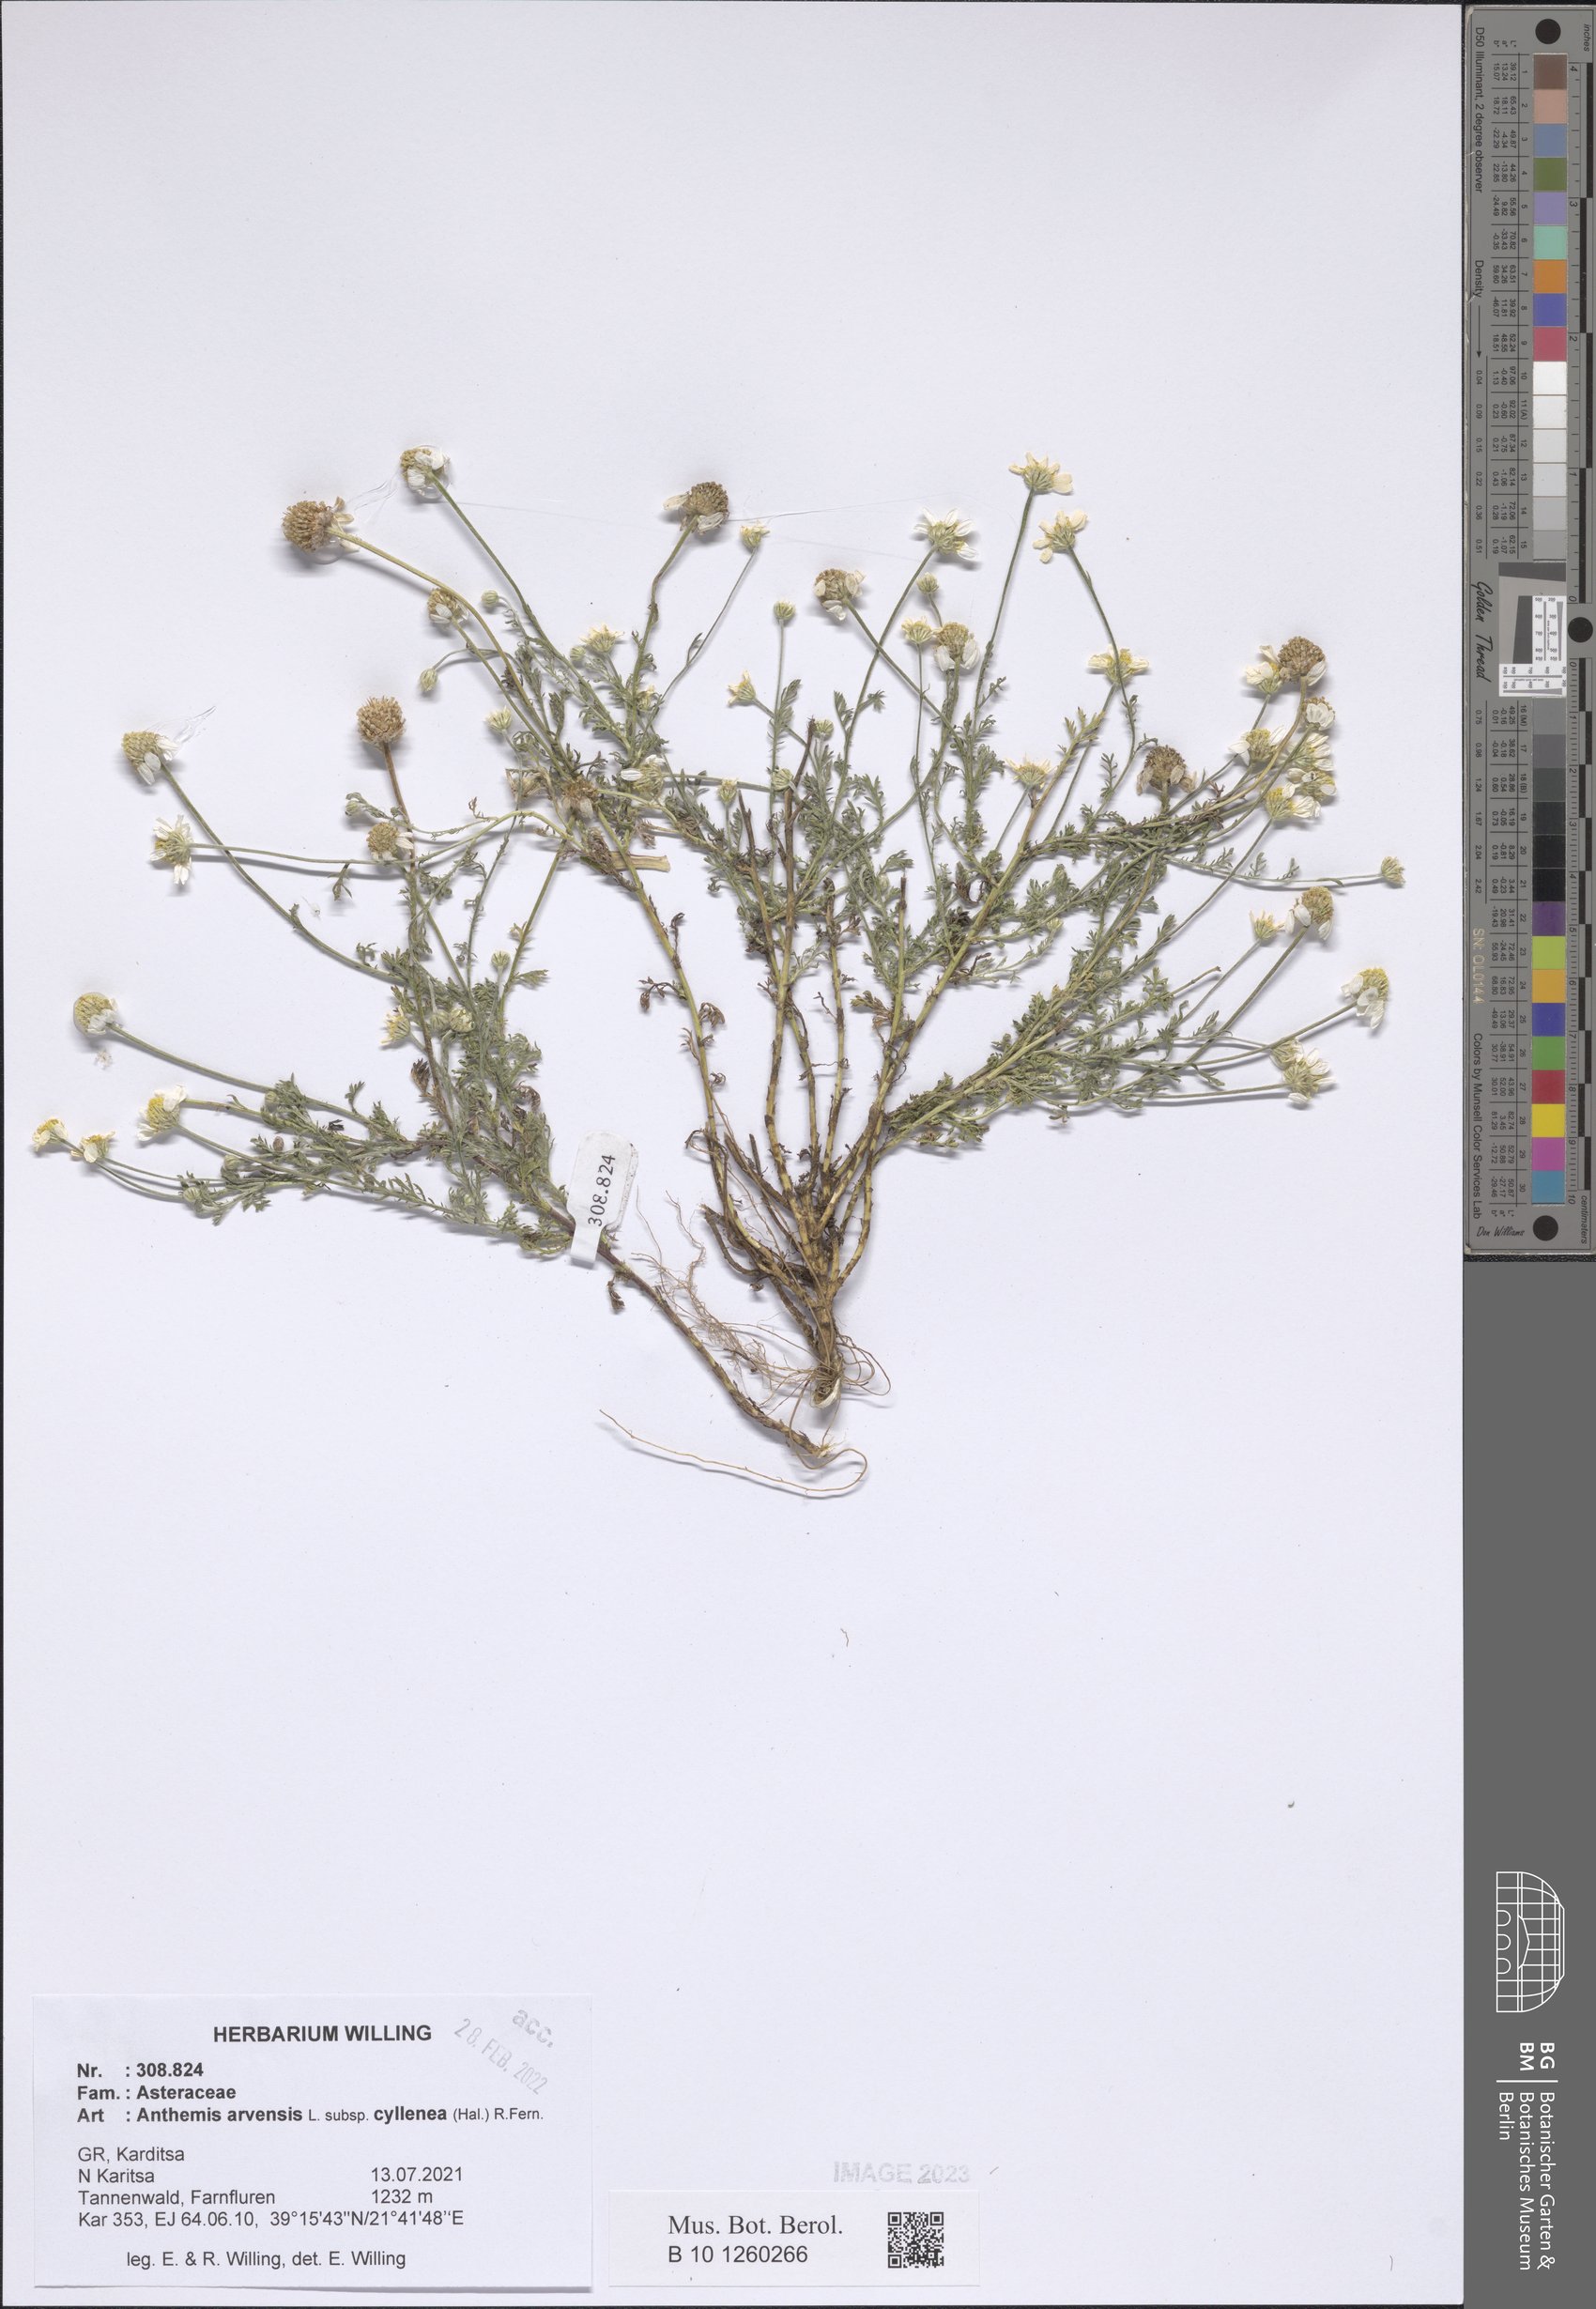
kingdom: Plantae
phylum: Tracheophyta
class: Magnoliopsida
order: Asterales
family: Asteraceae
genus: Anthemis
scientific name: Anthemis arvensis
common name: Corn chamomile
